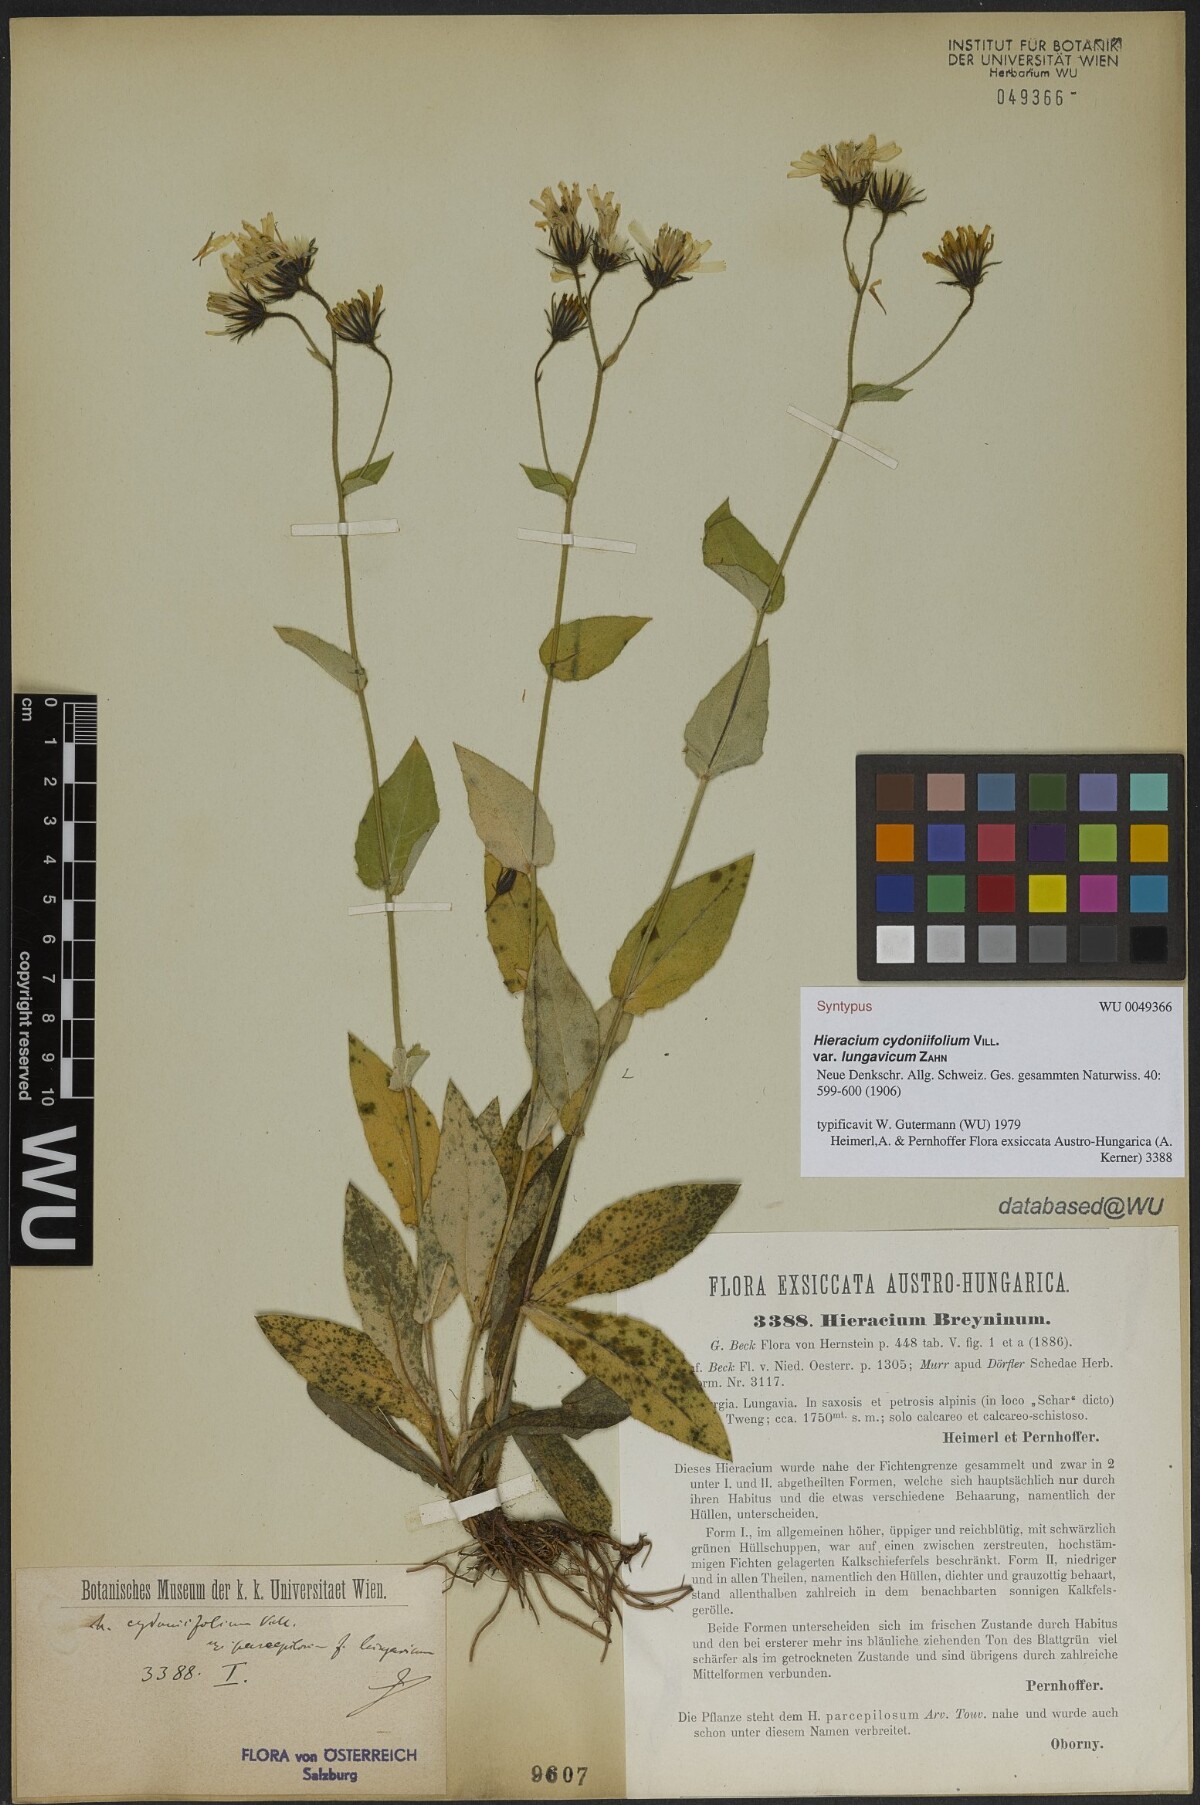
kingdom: Plantae
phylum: Tracheophyta
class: Magnoliopsida
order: Asterales
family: Asteraceae
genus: Hieracium
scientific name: Hieracium cydoniifolium
